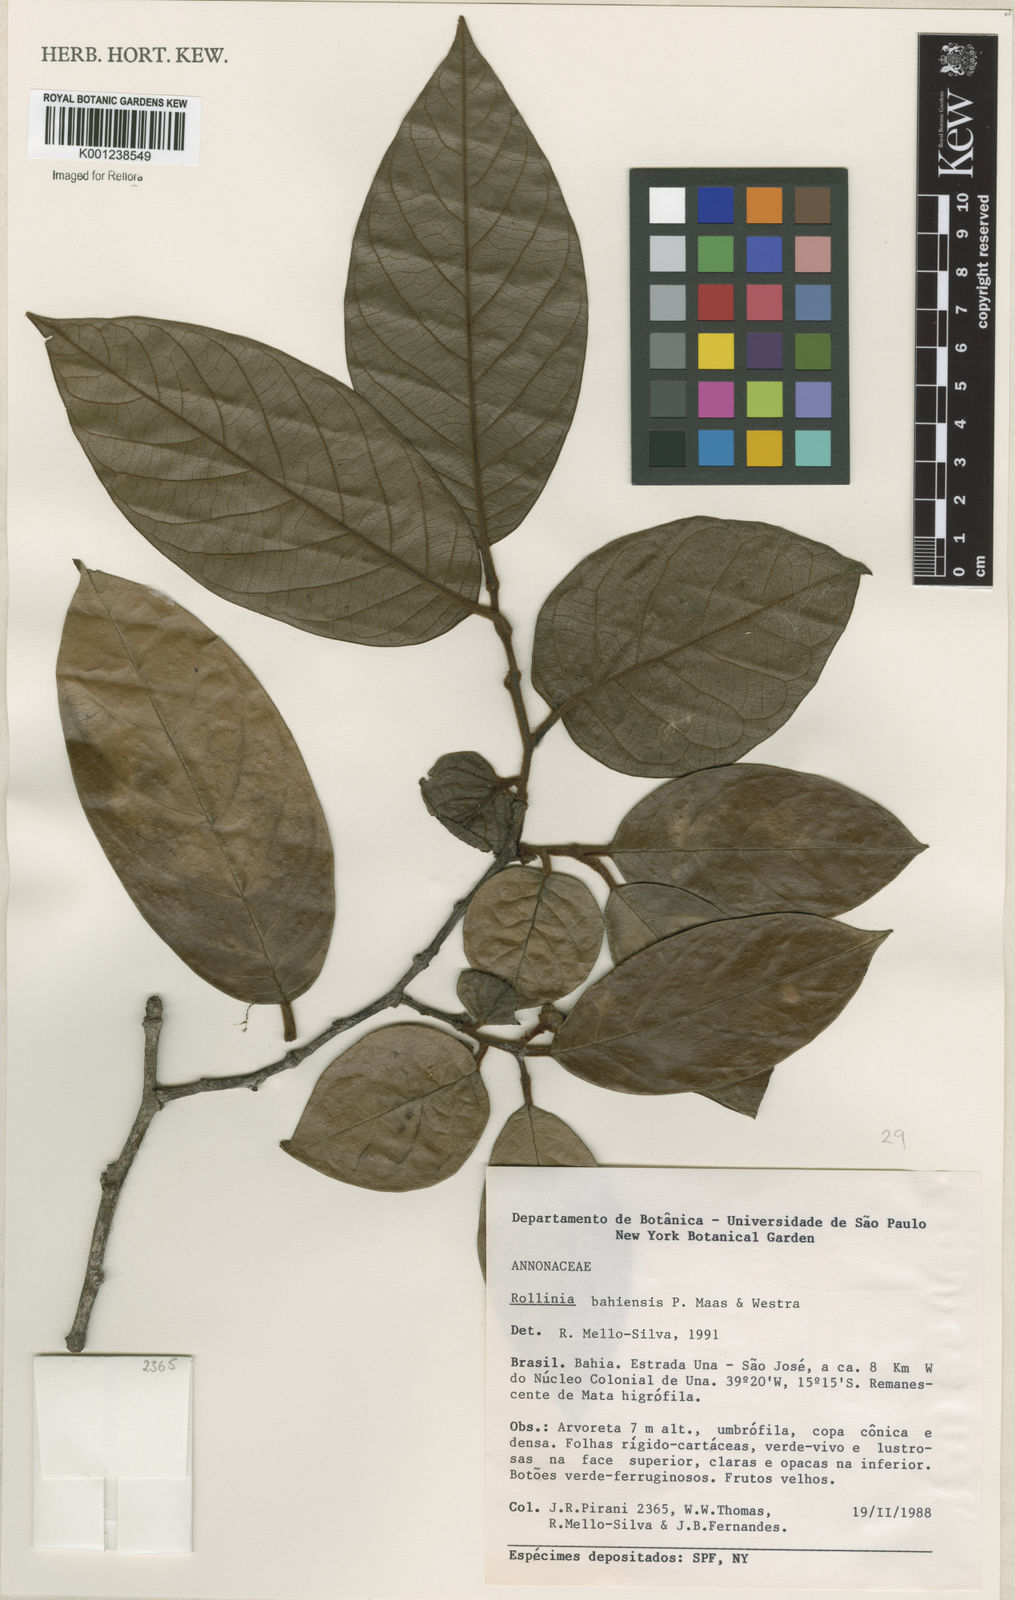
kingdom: Plantae
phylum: Tracheophyta
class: Magnoliopsida
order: Magnoliales
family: Annonaceae
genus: Annona
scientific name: Annona bahiensis
